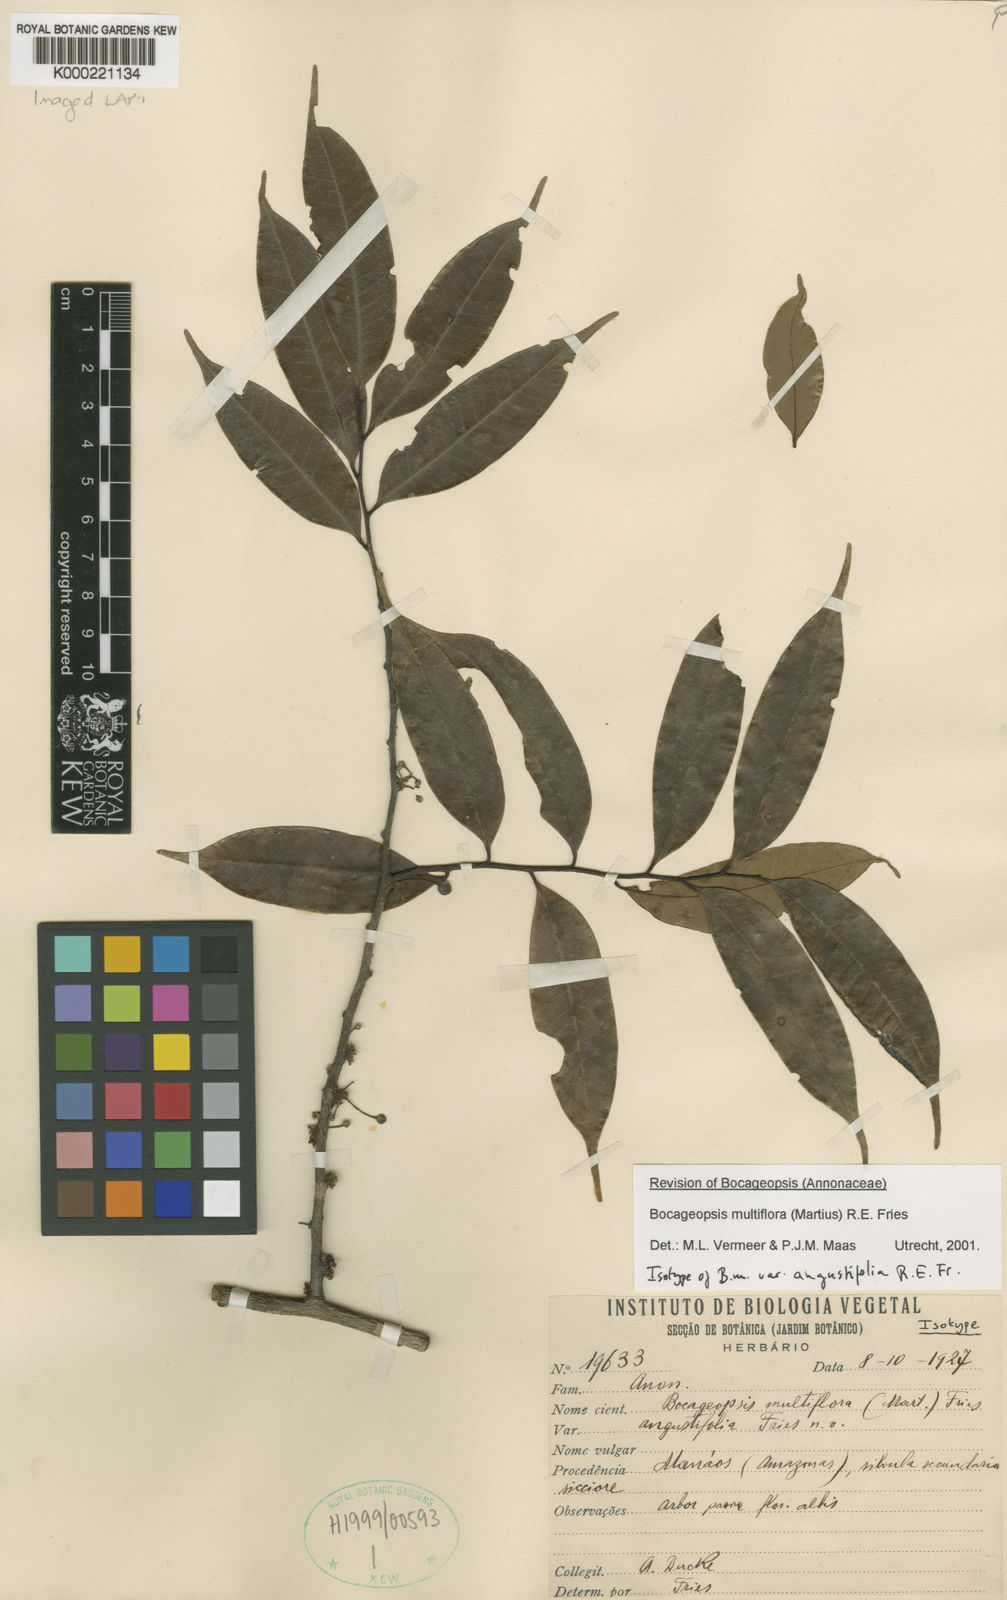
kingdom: Plantae
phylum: Tracheophyta
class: Magnoliopsida
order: Magnoliales
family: Annonaceae
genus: Bocageopsis
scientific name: Bocageopsis multiflora
